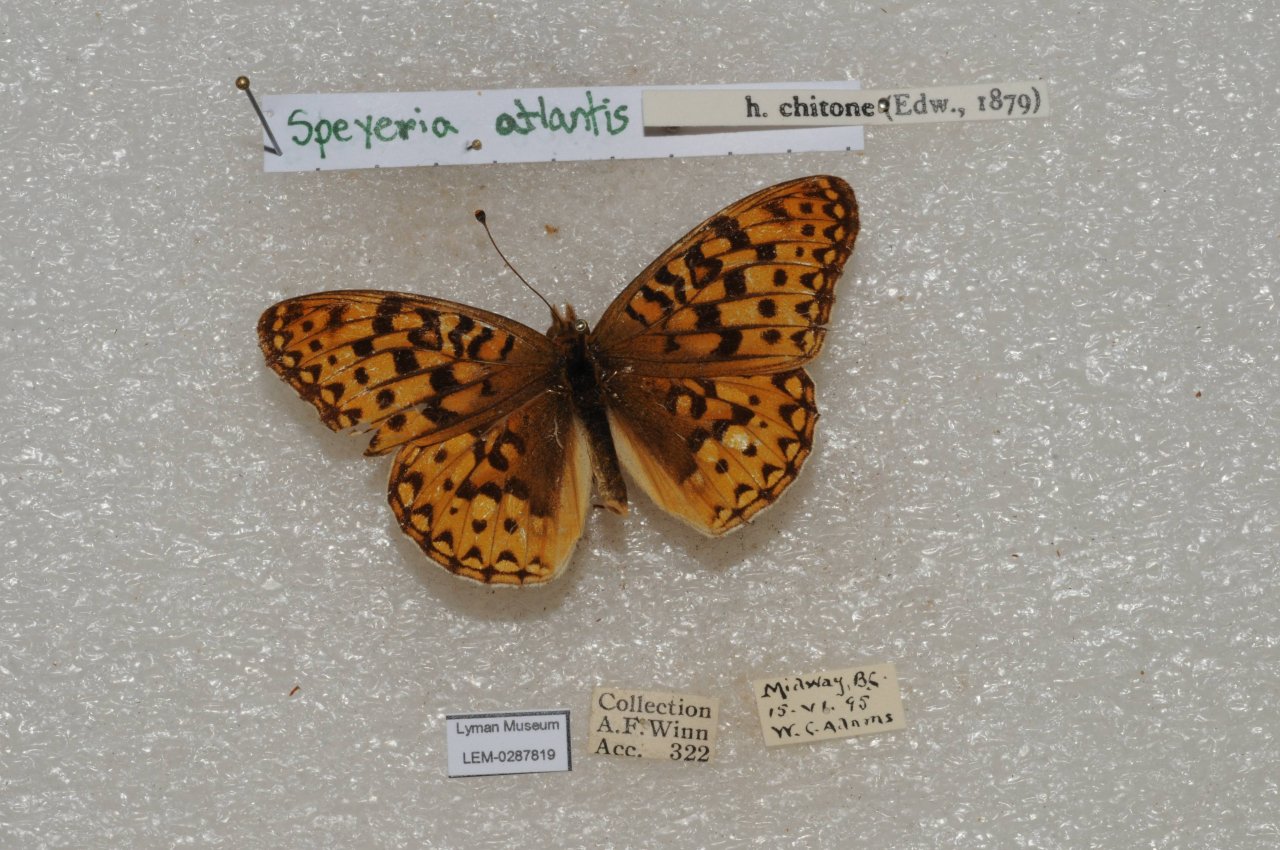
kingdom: Animalia
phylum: Arthropoda
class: Insecta
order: Lepidoptera
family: Nymphalidae
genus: Speyeria
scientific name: Speyeria atlantis
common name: Atlantis Fritillary
